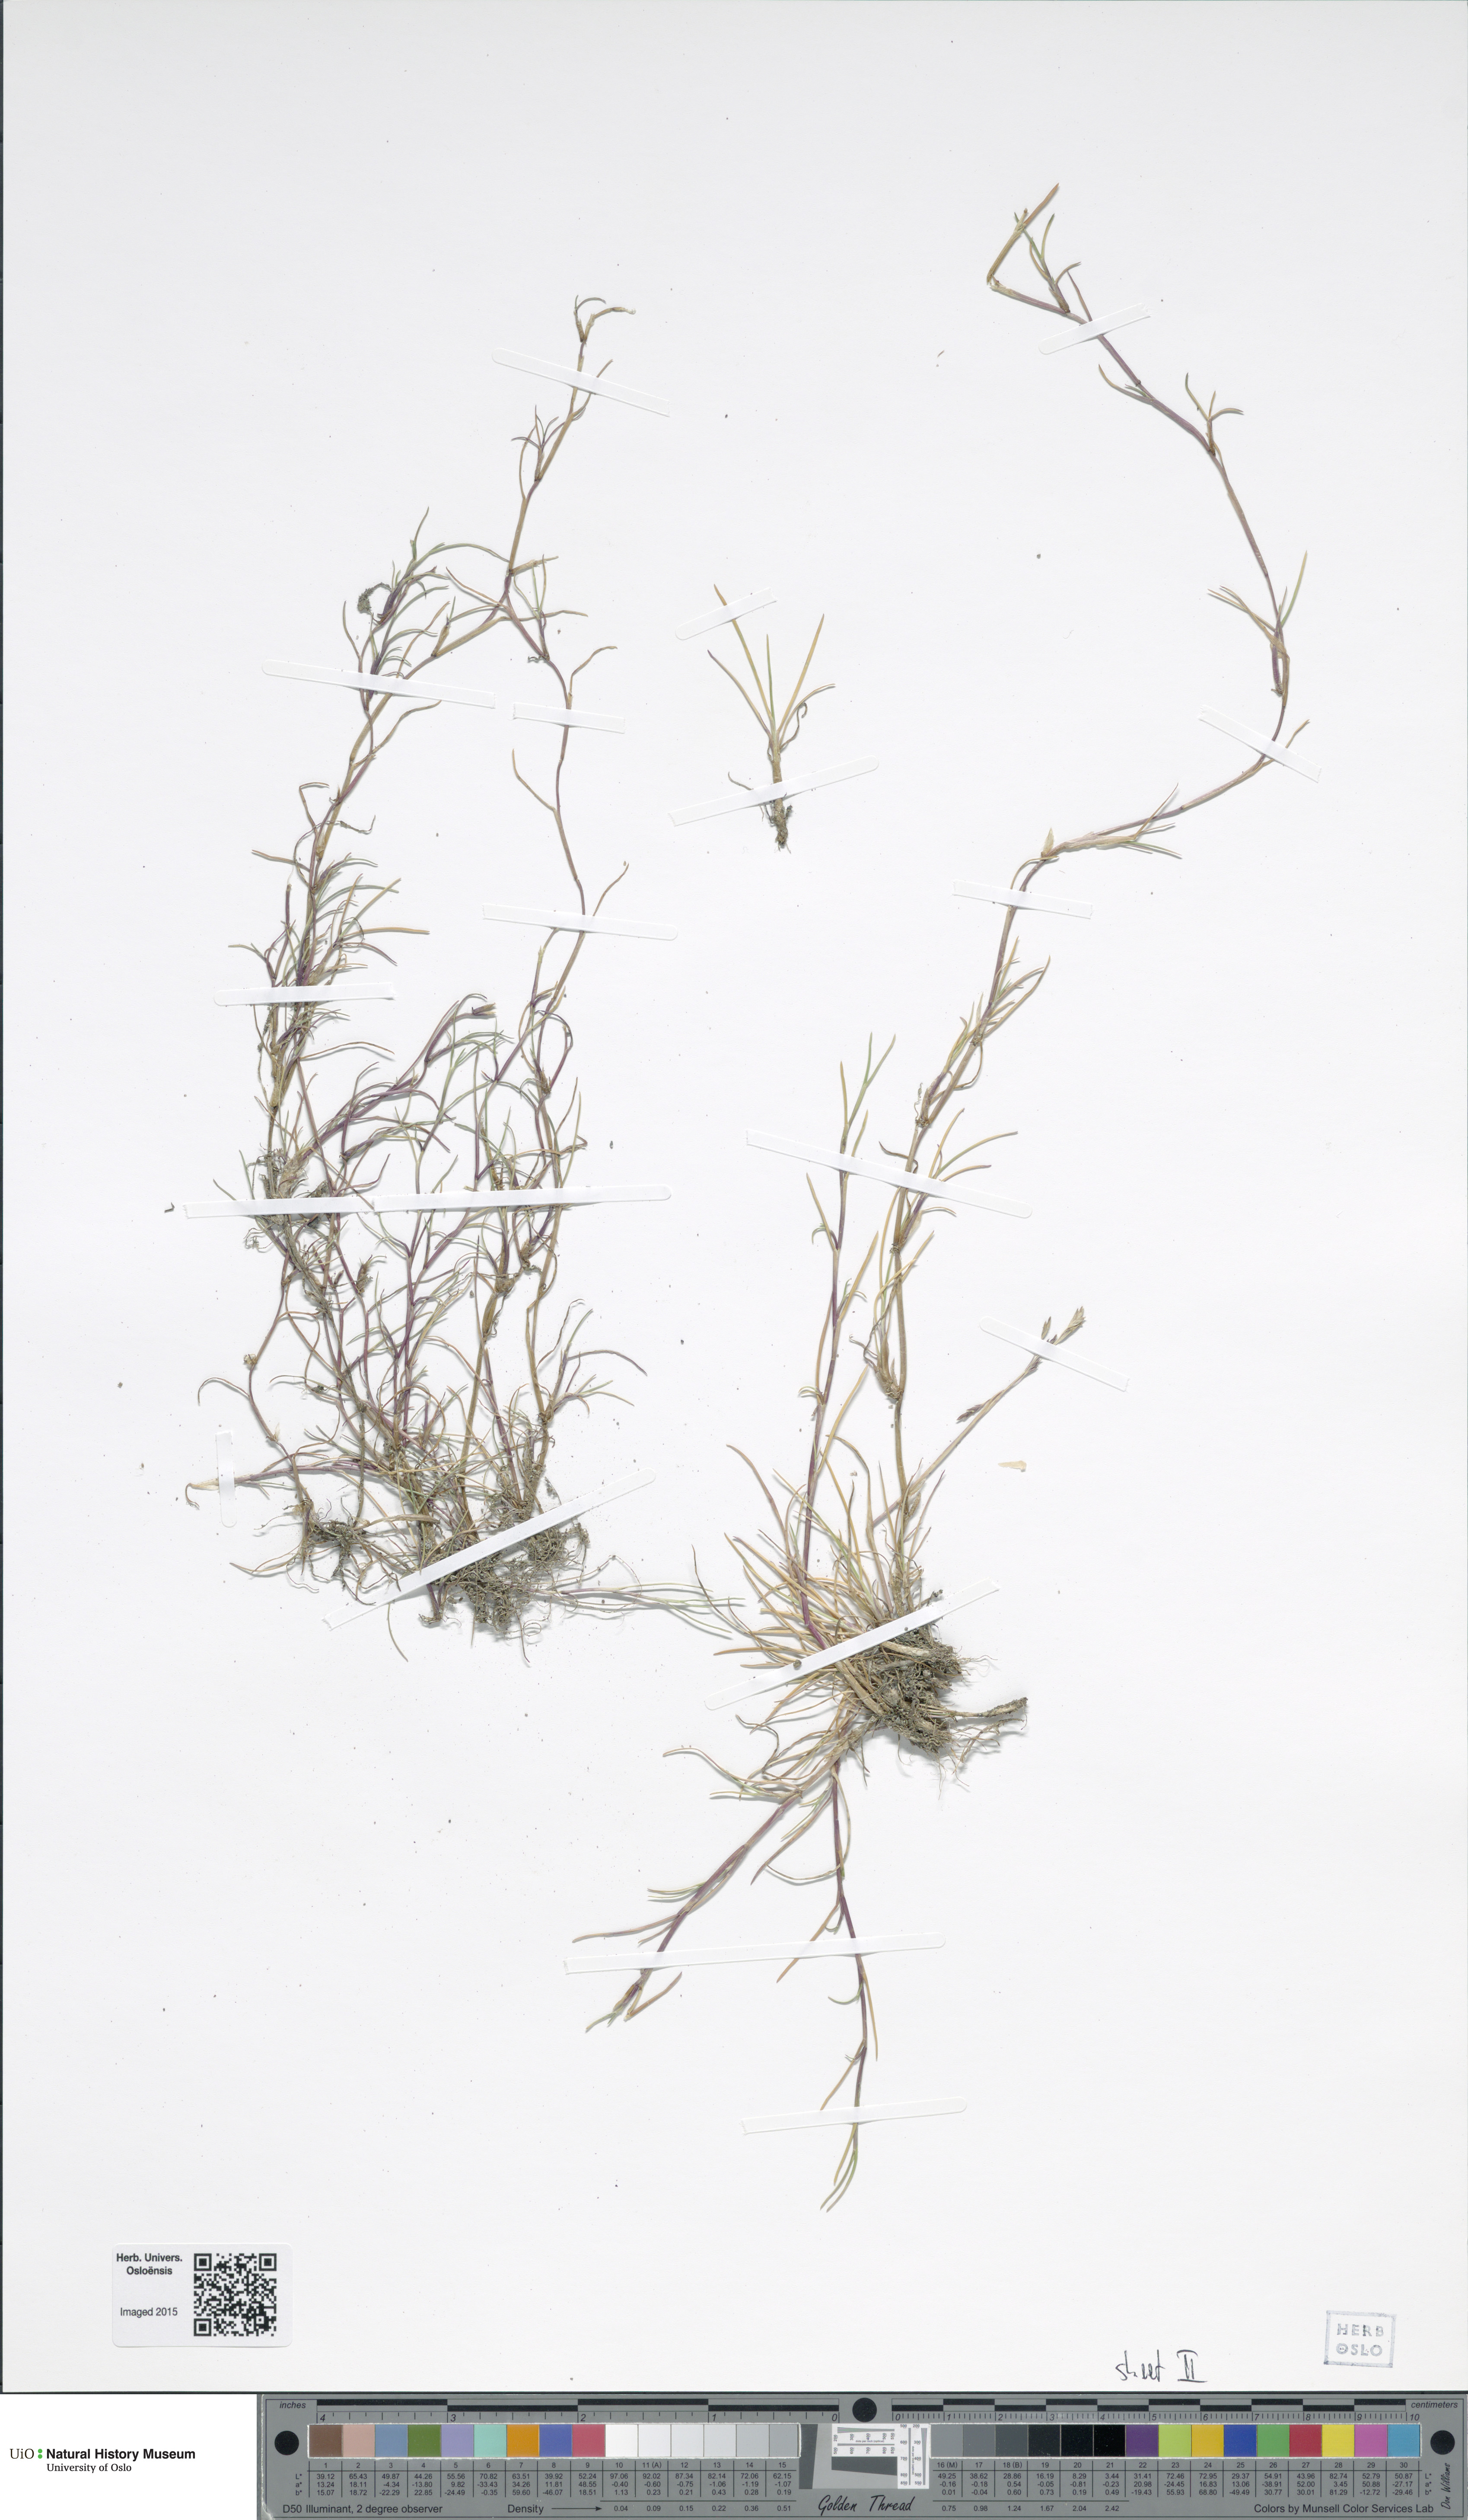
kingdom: Plantae
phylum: Tracheophyta
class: Liliopsida
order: Poales
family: Poaceae
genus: Puccinellia
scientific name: Puccinellia phryganodes
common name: Creeping alkaligrass
